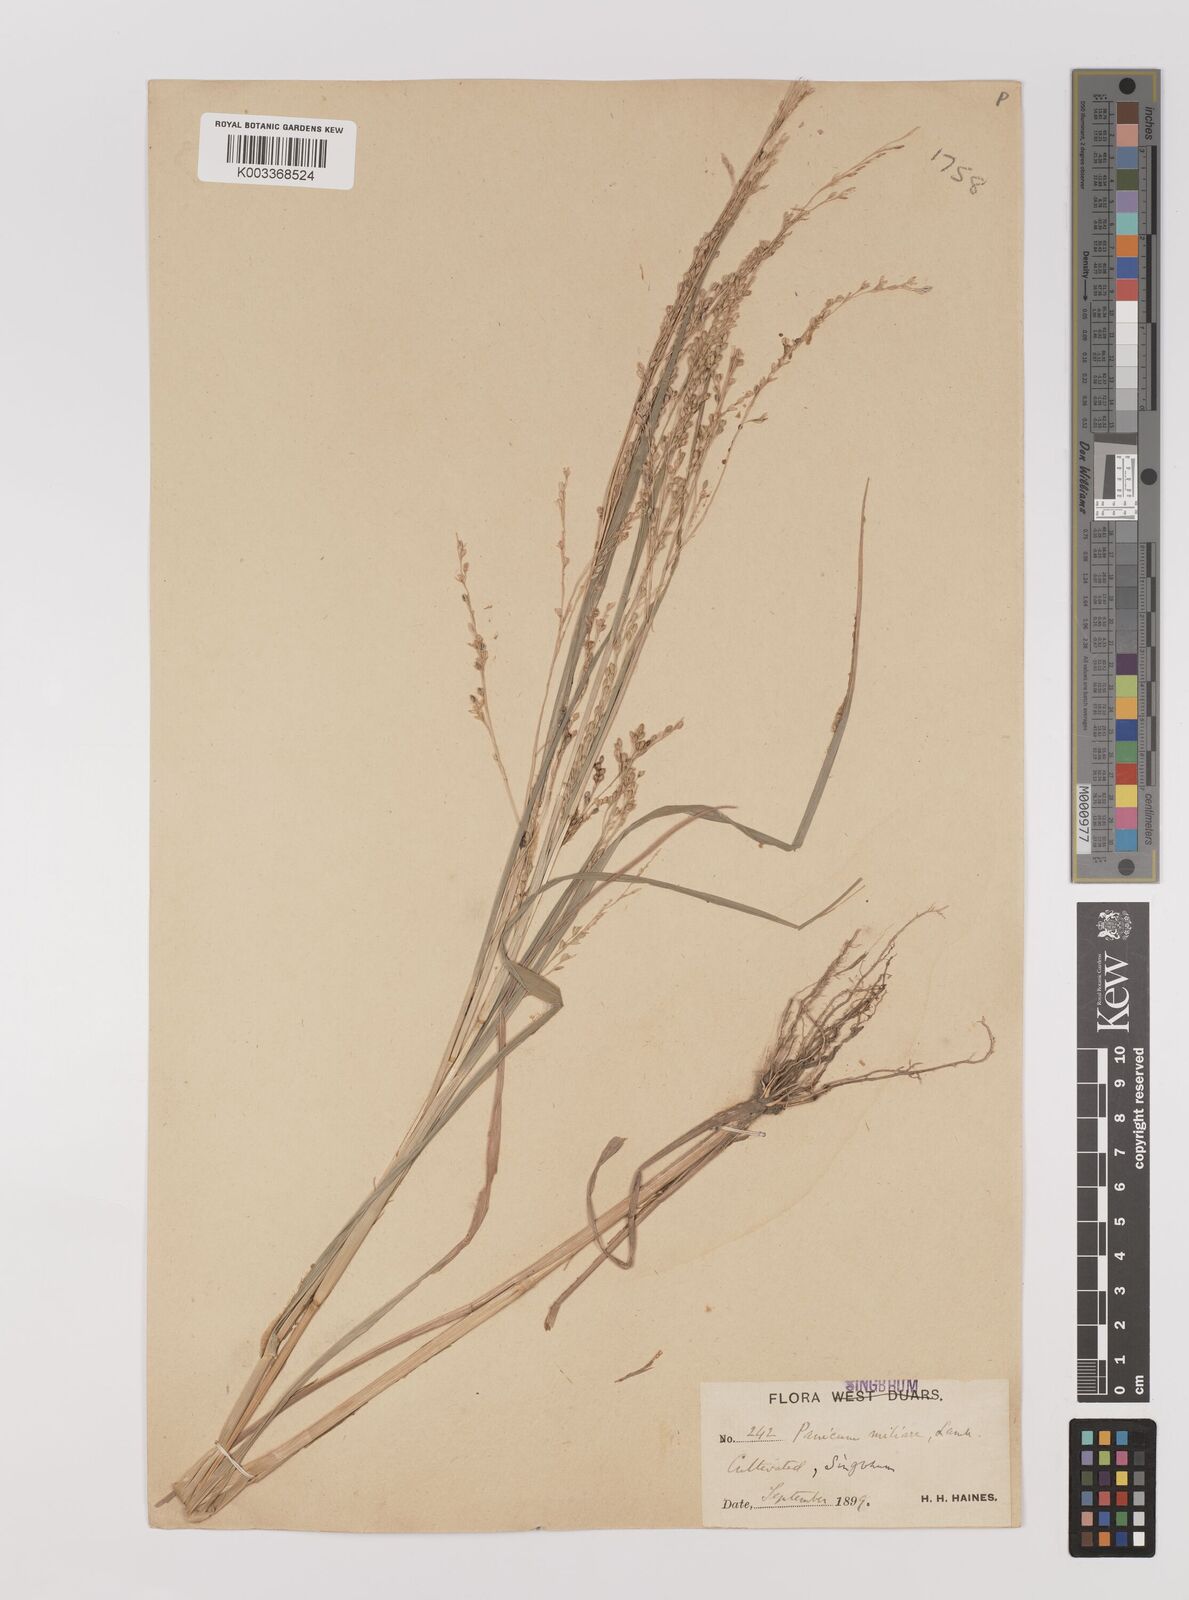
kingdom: Plantae
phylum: Tracheophyta
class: Liliopsida
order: Poales
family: Poaceae
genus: Panicum
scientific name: Panicum sumatrense
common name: Little millet
